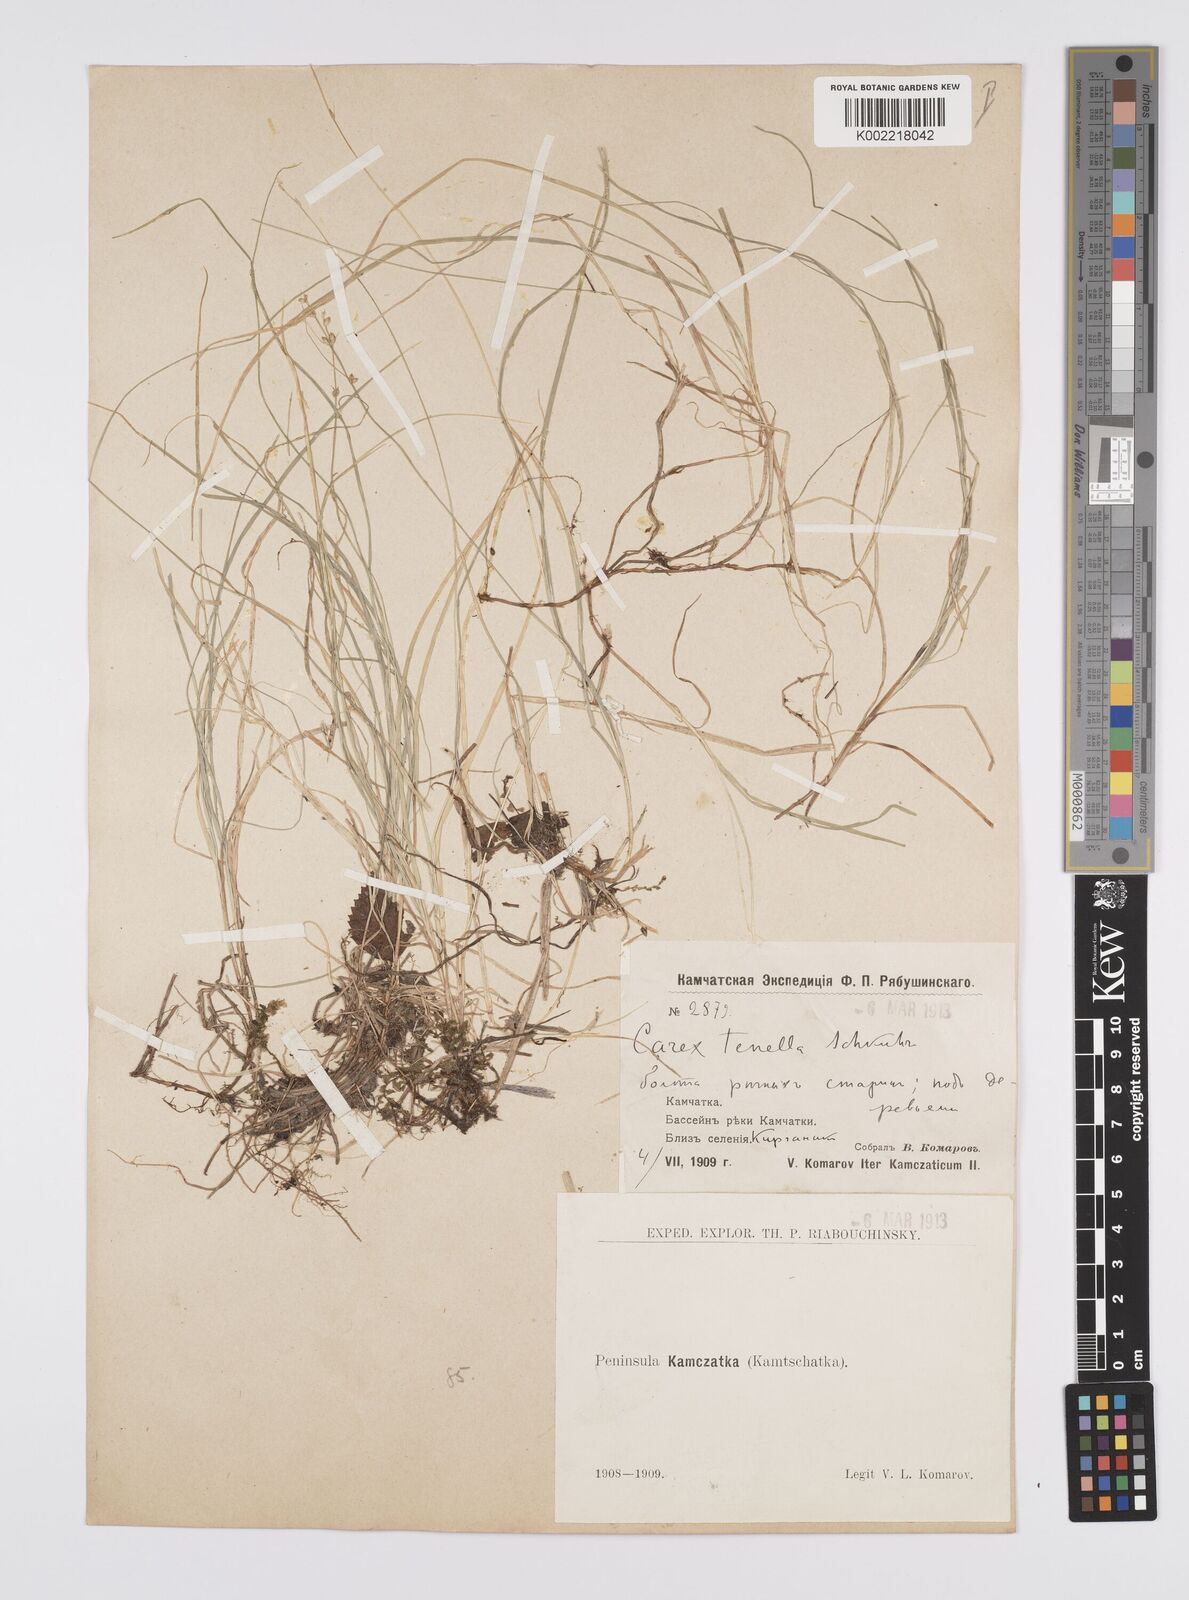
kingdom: Plantae
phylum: Tracheophyta
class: Liliopsida
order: Poales
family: Cyperaceae
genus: Carex
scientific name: Carex disperma
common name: Short-leaved sedge
